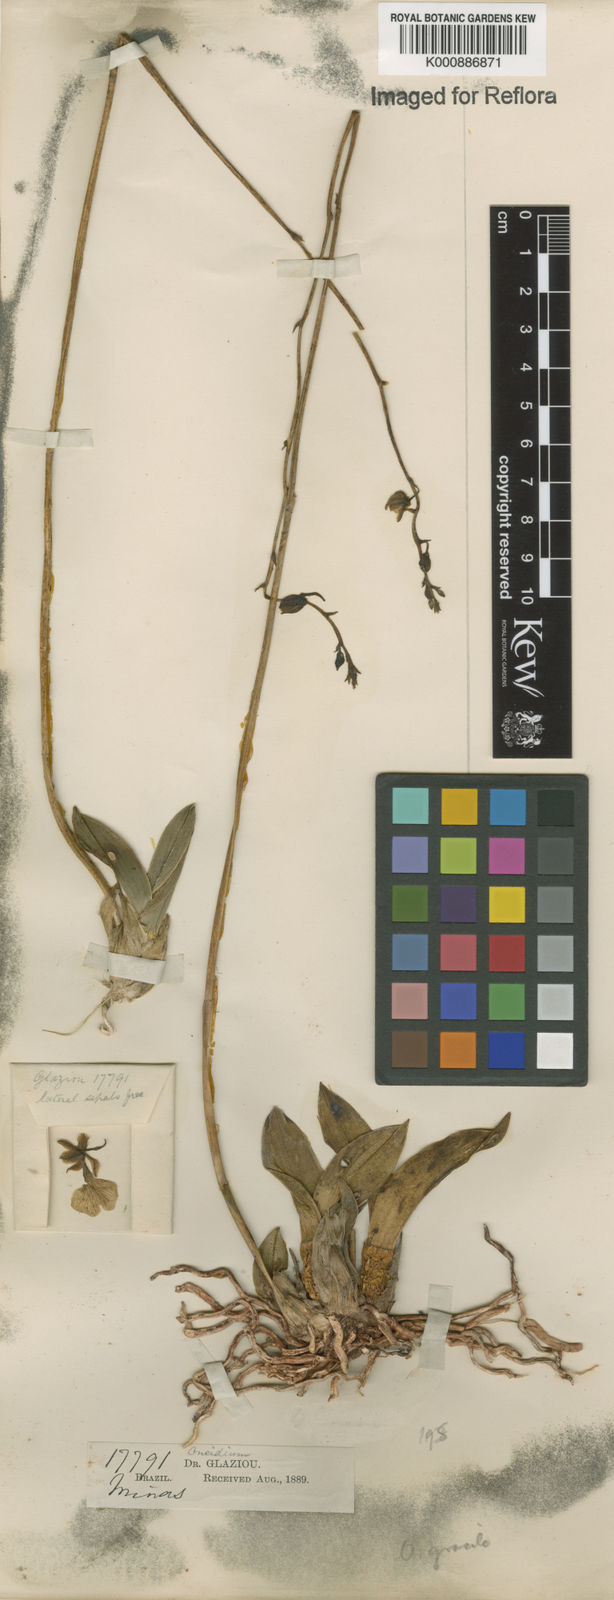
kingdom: Plantae
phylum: Tracheophyta
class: Liliopsida
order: Asparagales
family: Orchidaceae
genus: Gomesa
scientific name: Gomesa gracilis
